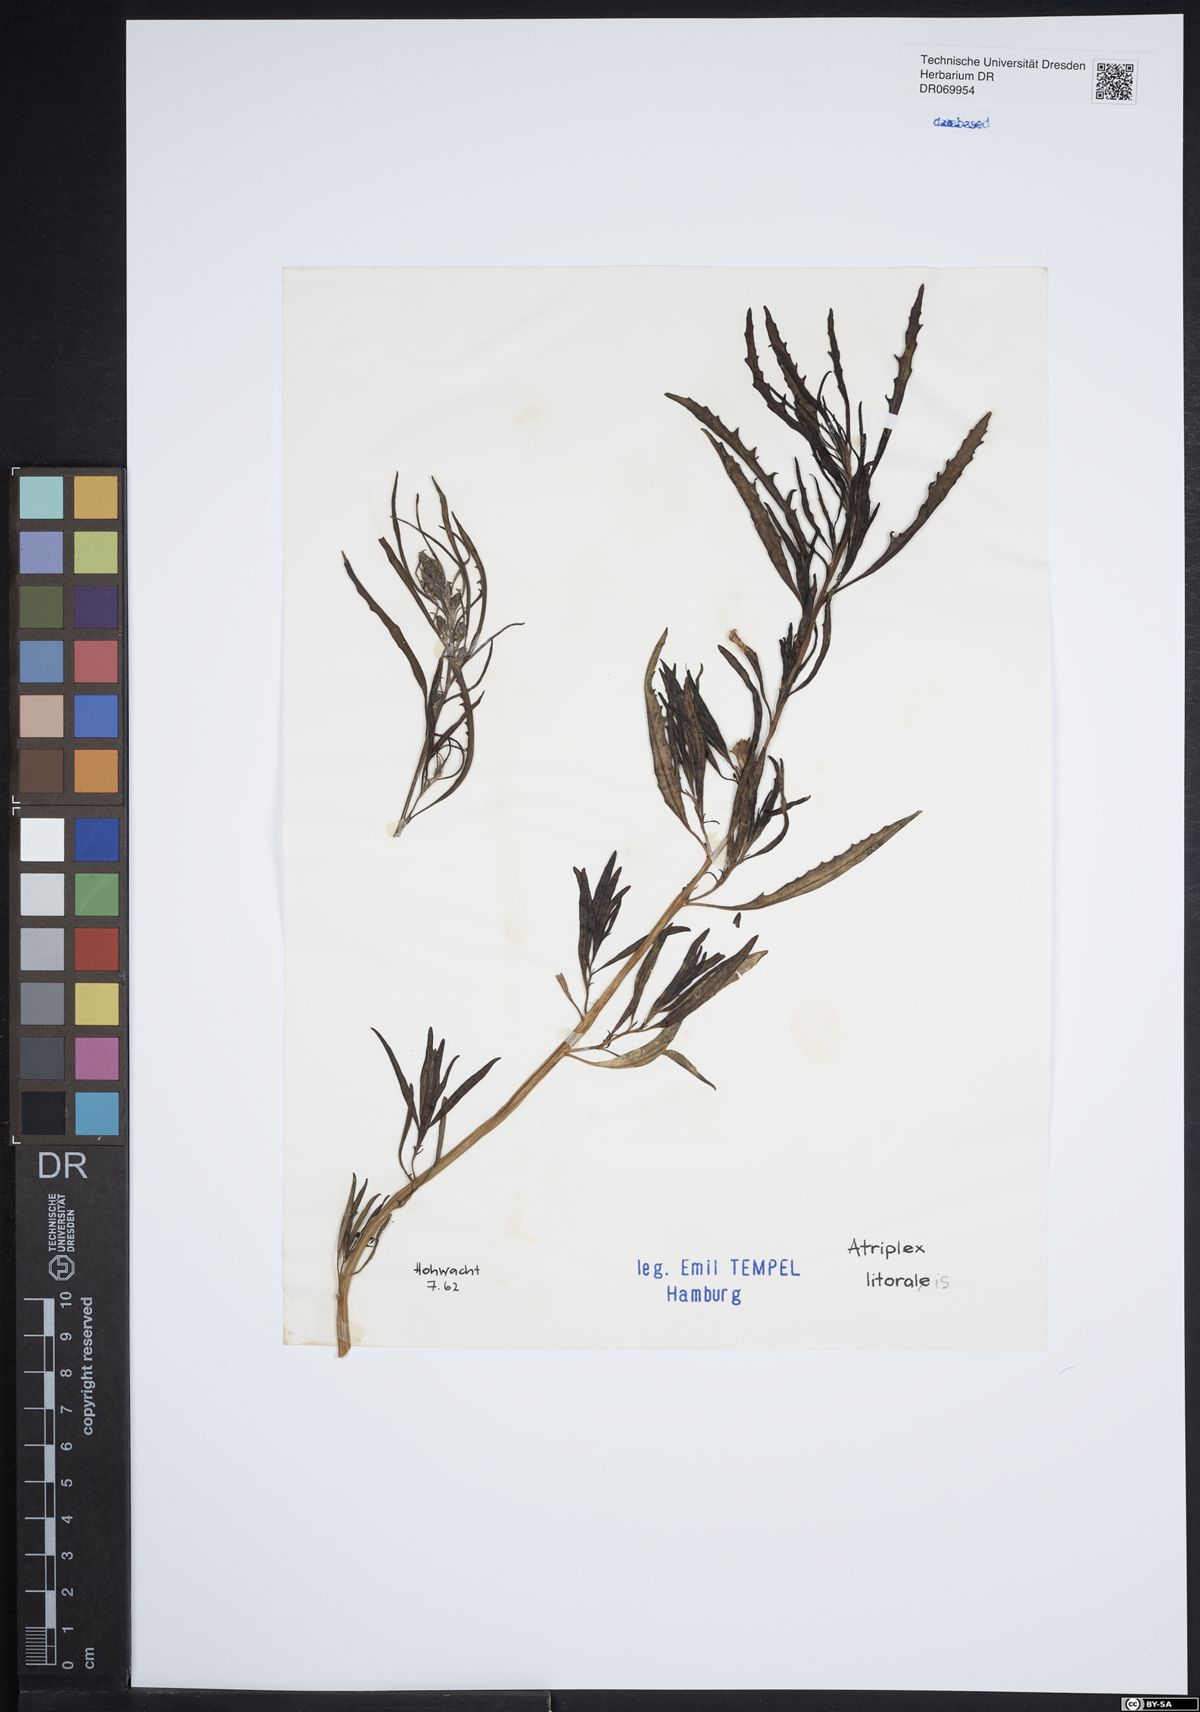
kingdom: Plantae
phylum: Tracheophyta
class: Magnoliopsida
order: Caryophyllales
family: Amaranthaceae
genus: Atriplex
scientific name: Atriplex littoralis
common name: Grass-leaved orache
